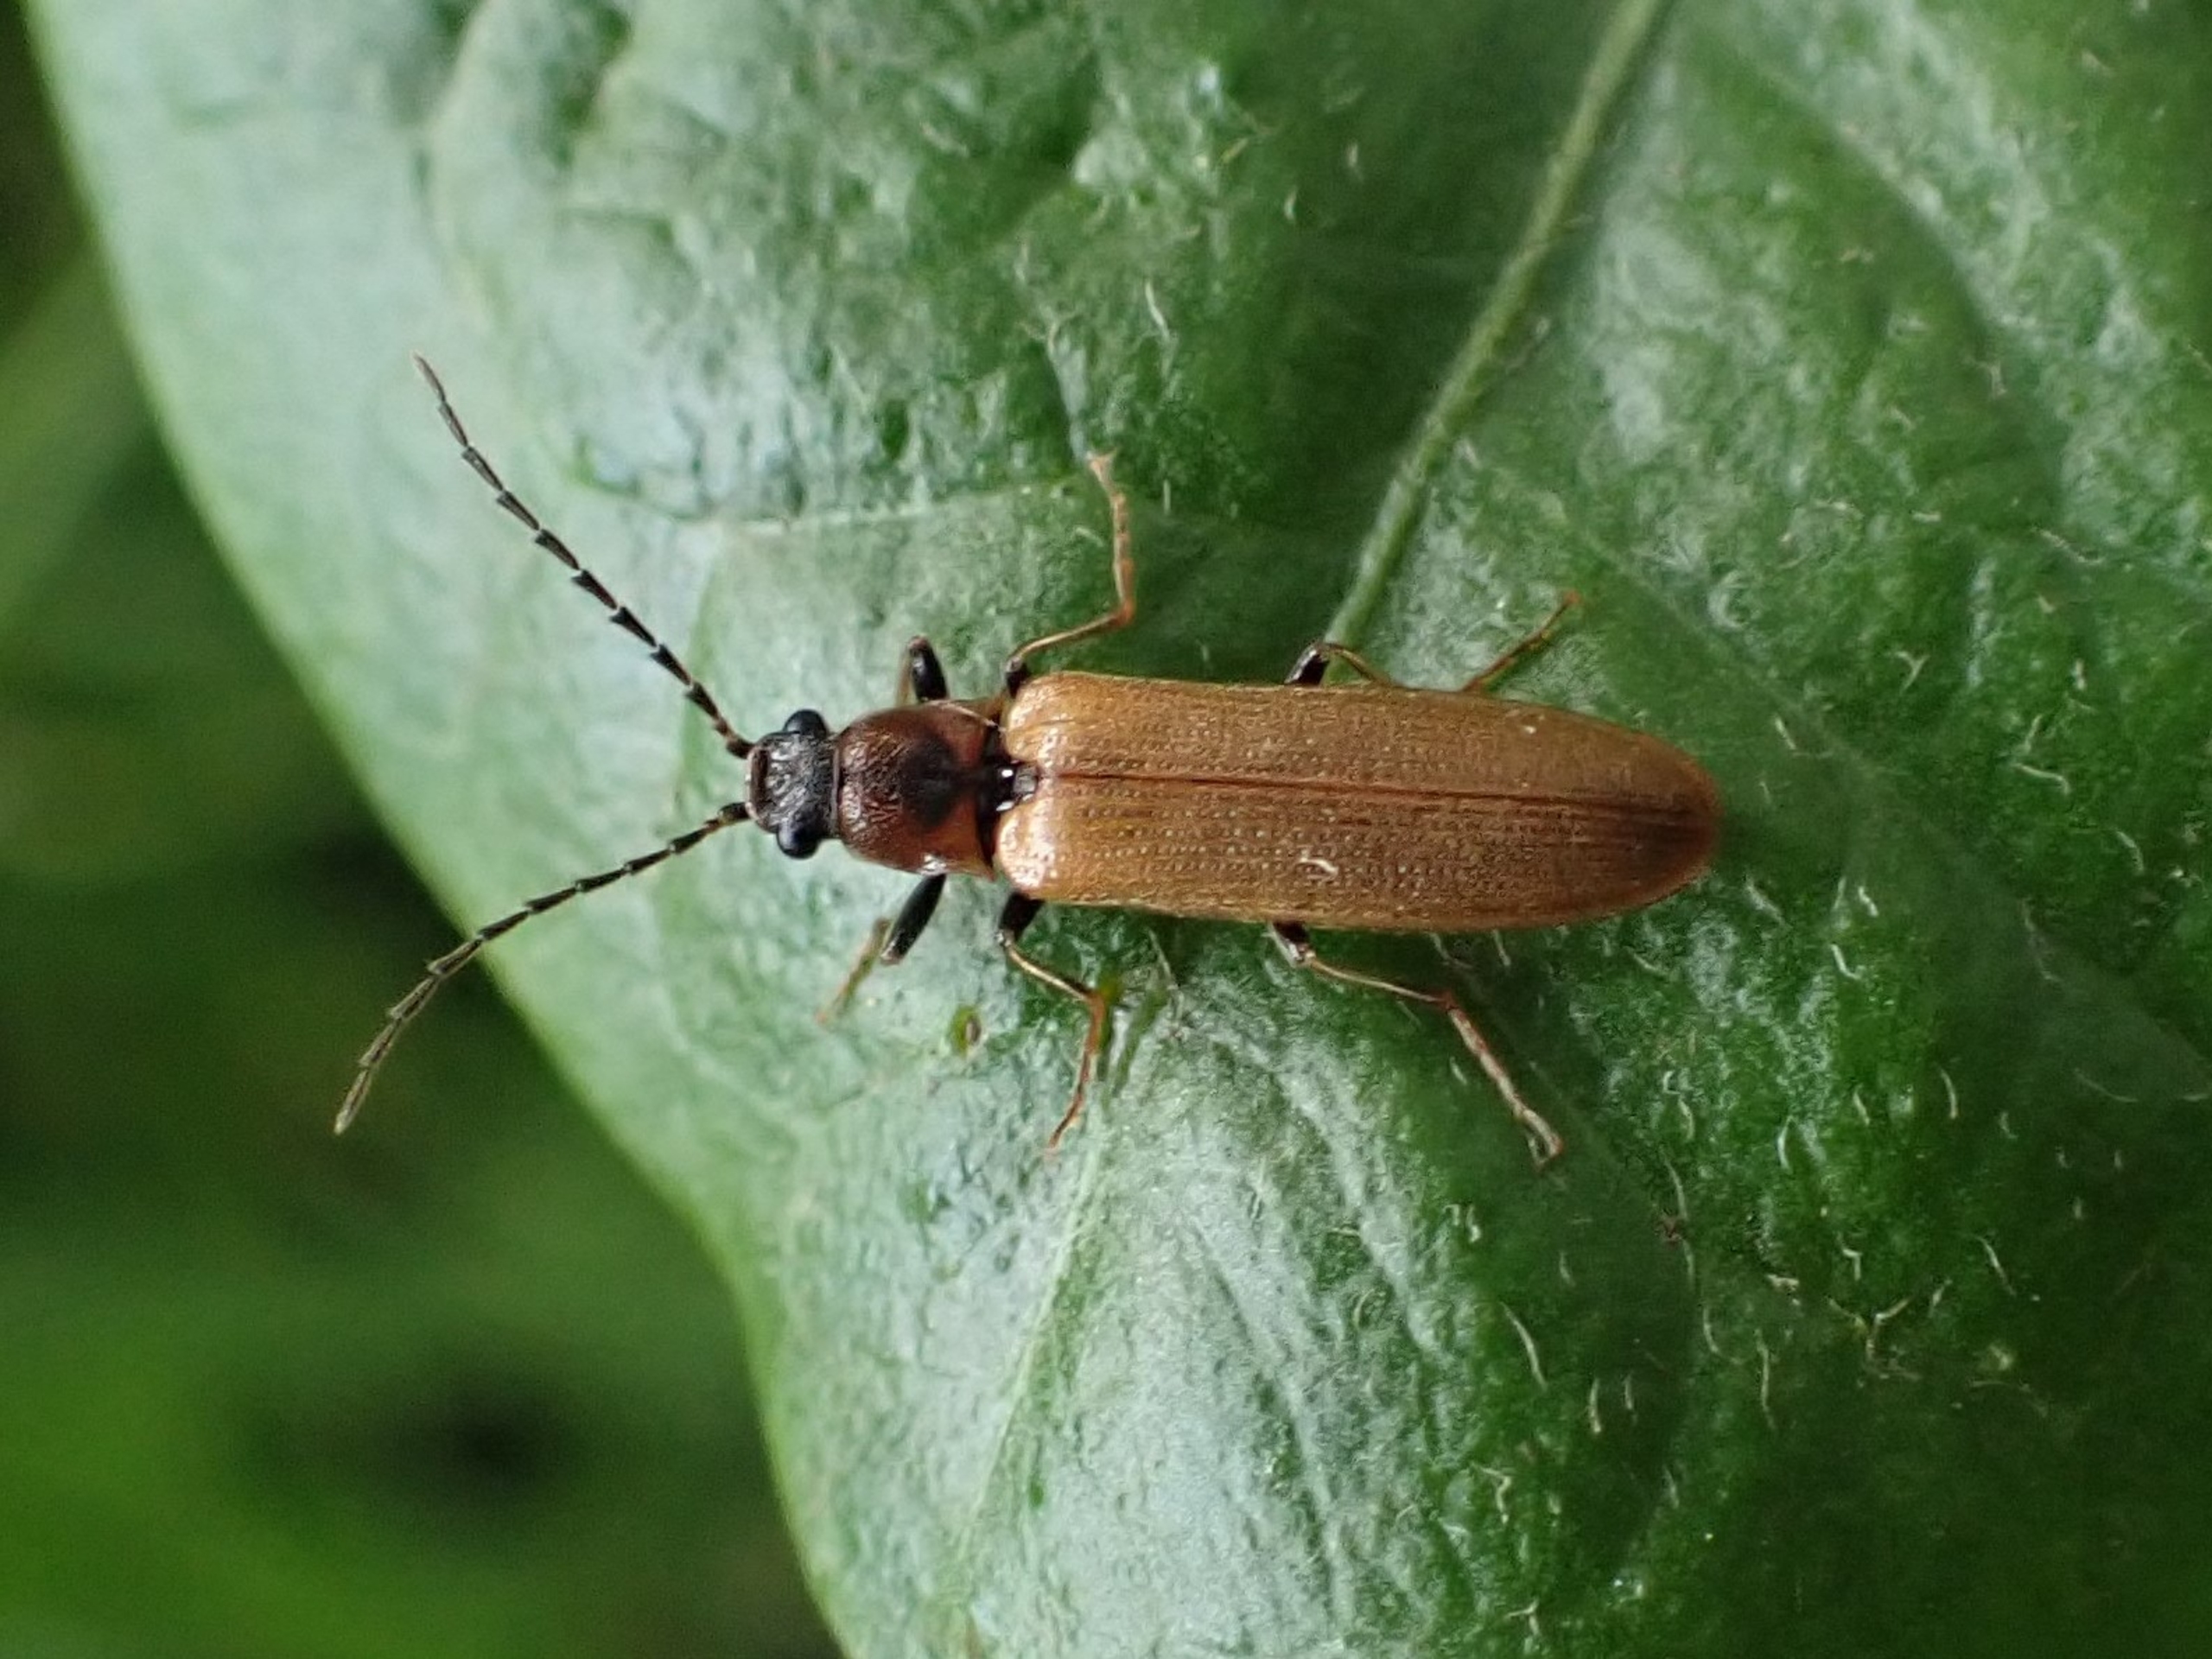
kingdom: Animalia
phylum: Arthropoda
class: Insecta
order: Coleoptera
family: Elateridae
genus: Denticollis
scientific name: Denticollis linearis
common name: Almindelig sirsmælder
